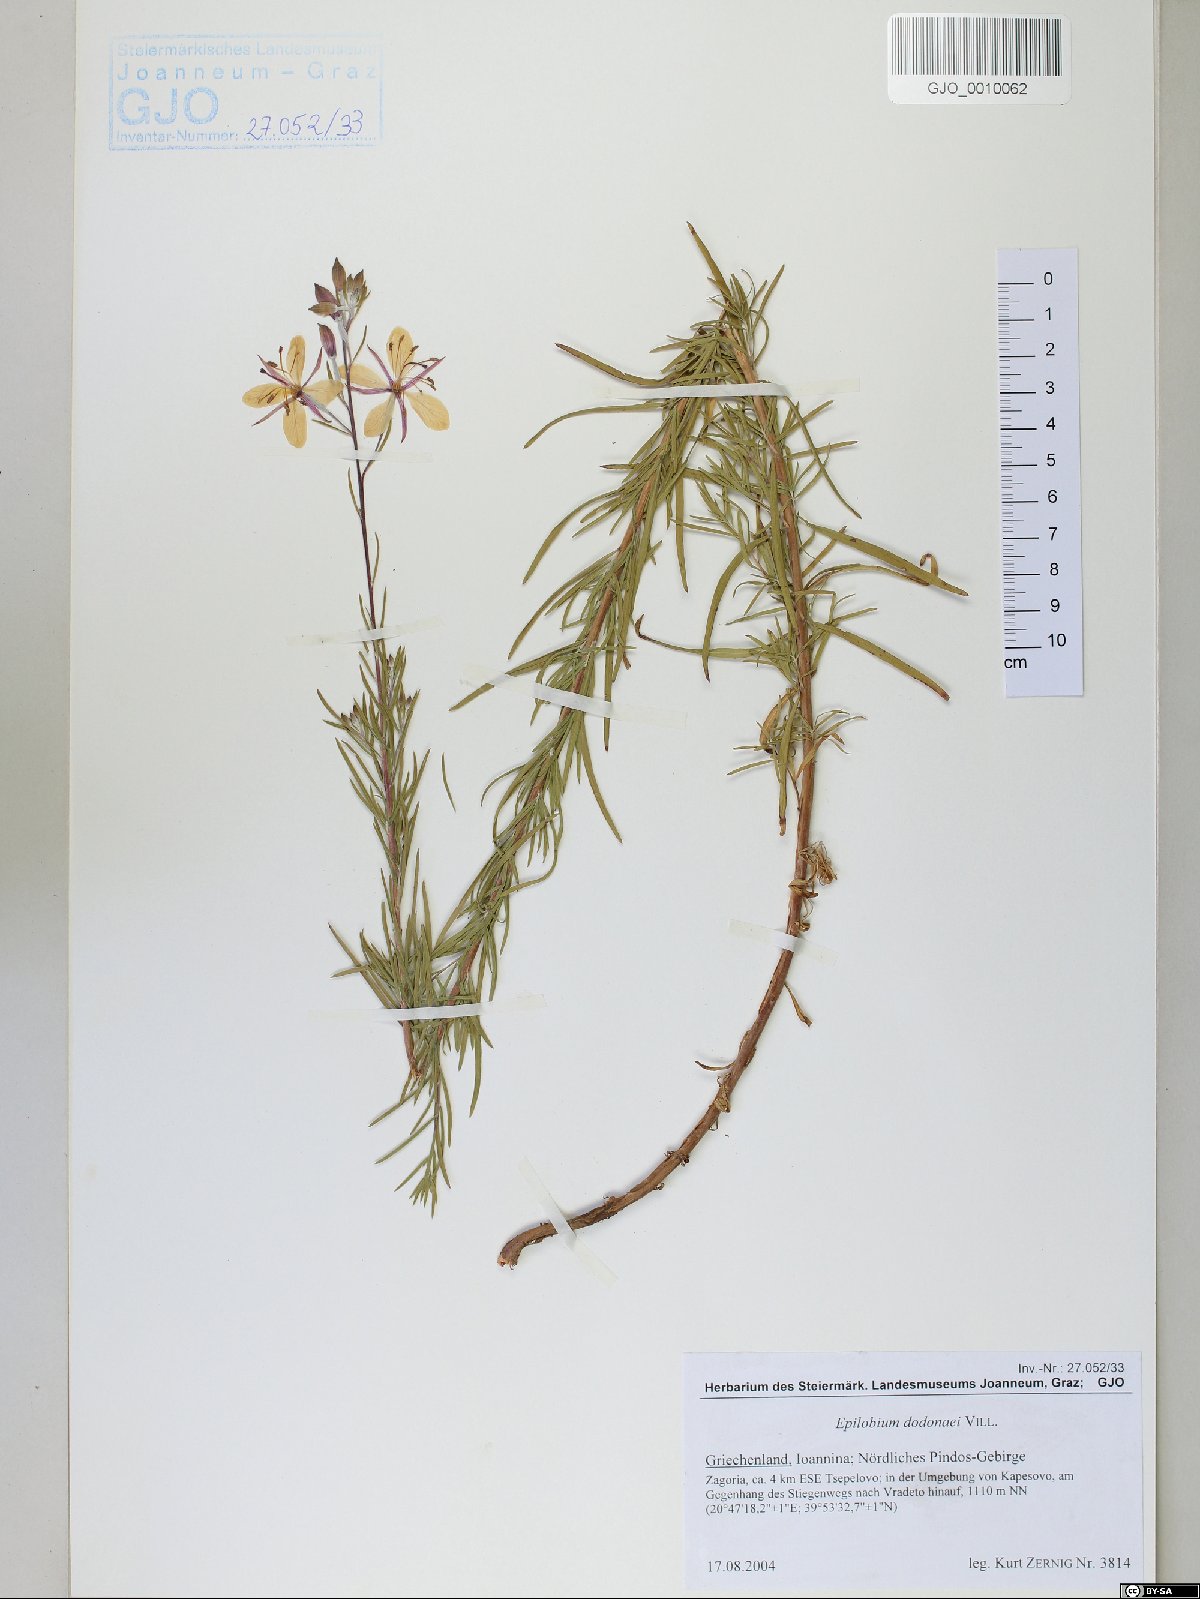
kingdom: Plantae
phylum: Tracheophyta
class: Magnoliopsida
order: Myrtales
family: Onagraceae
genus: Chamaenerion
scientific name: Chamaenerion dodonaei
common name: Rosemary-leaved willowherb
